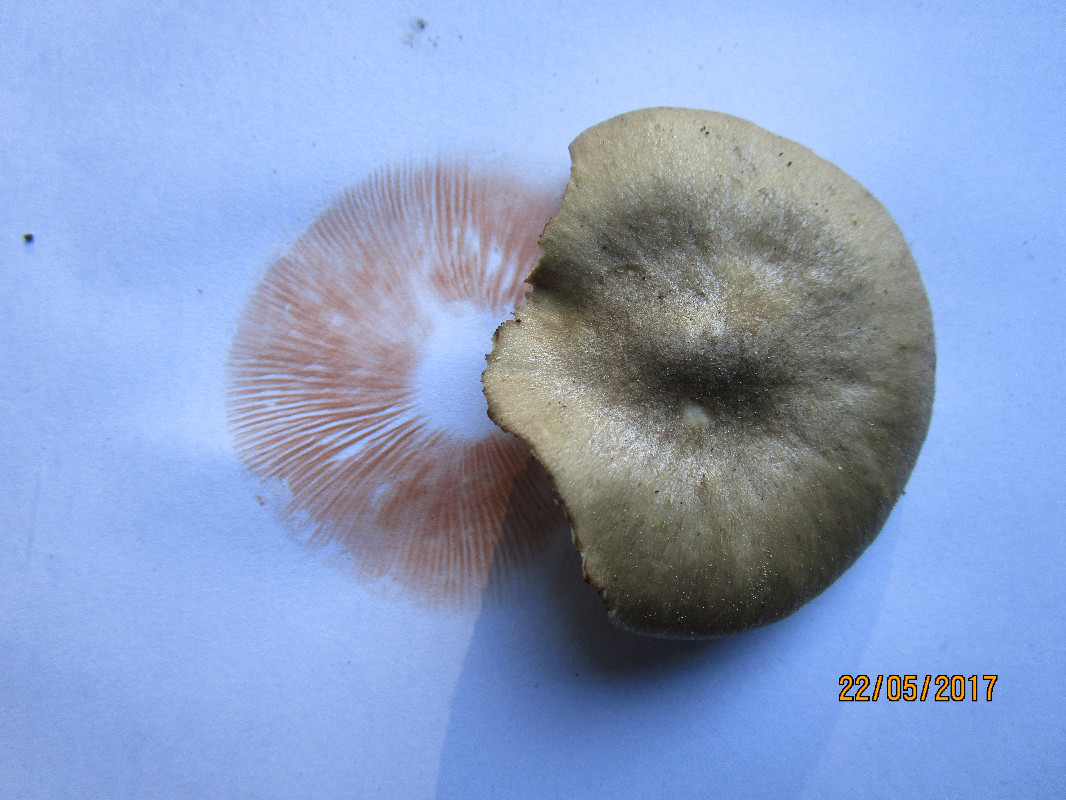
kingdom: Fungi
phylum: Basidiomycota
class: Agaricomycetes
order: Agaricales
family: Entolomataceae
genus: Entoloma
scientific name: Entoloma clypeatum
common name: flammet rødblad
